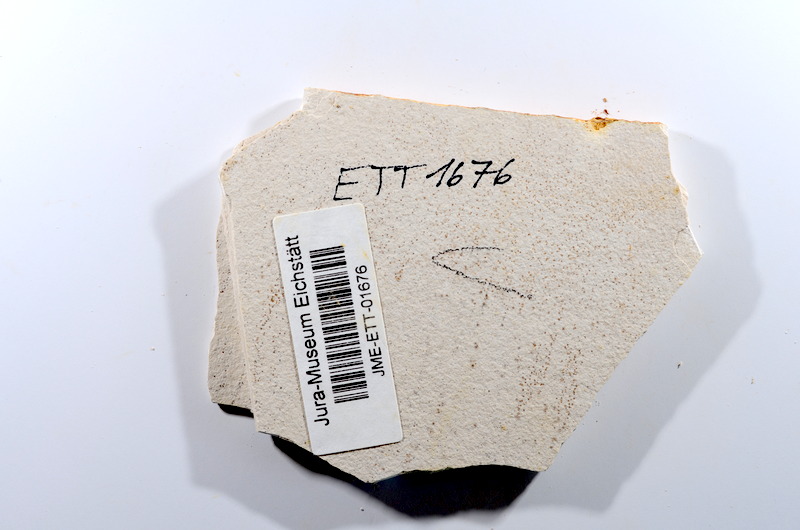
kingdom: Animalia
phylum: Chordata
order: Salmoniformes
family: Orthogonikleithridae
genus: Orthogonikleithrus
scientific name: Orthogonikleithrus hoelli
